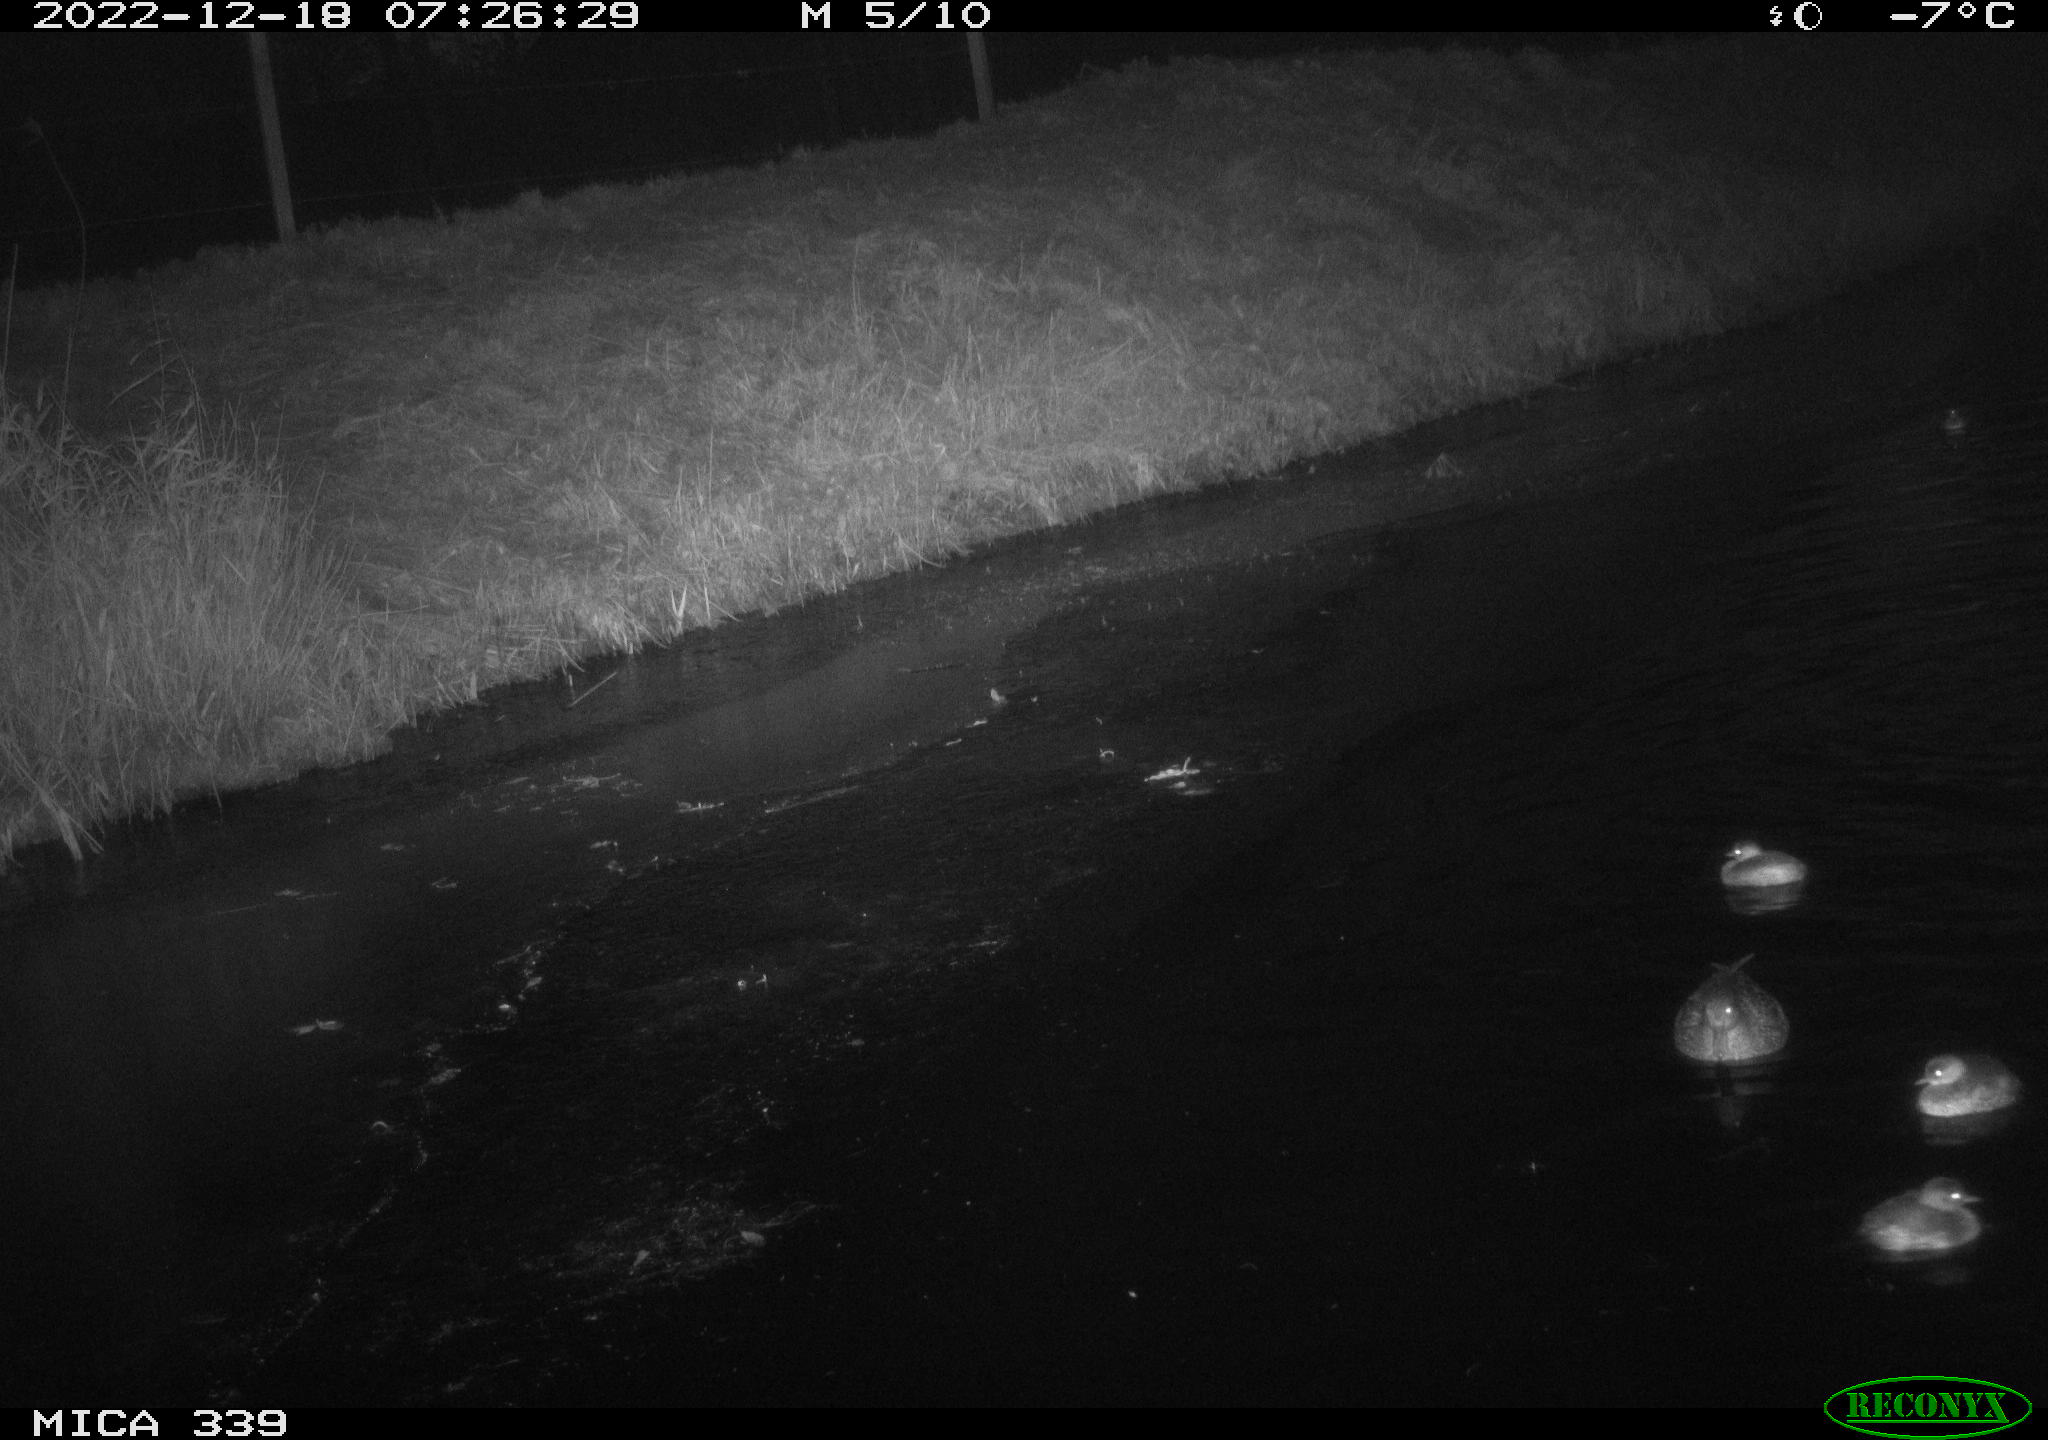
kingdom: Animalia
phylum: Chordata
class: Aves
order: Anseriformes
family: Anatidae
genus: Anas
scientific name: Anas
